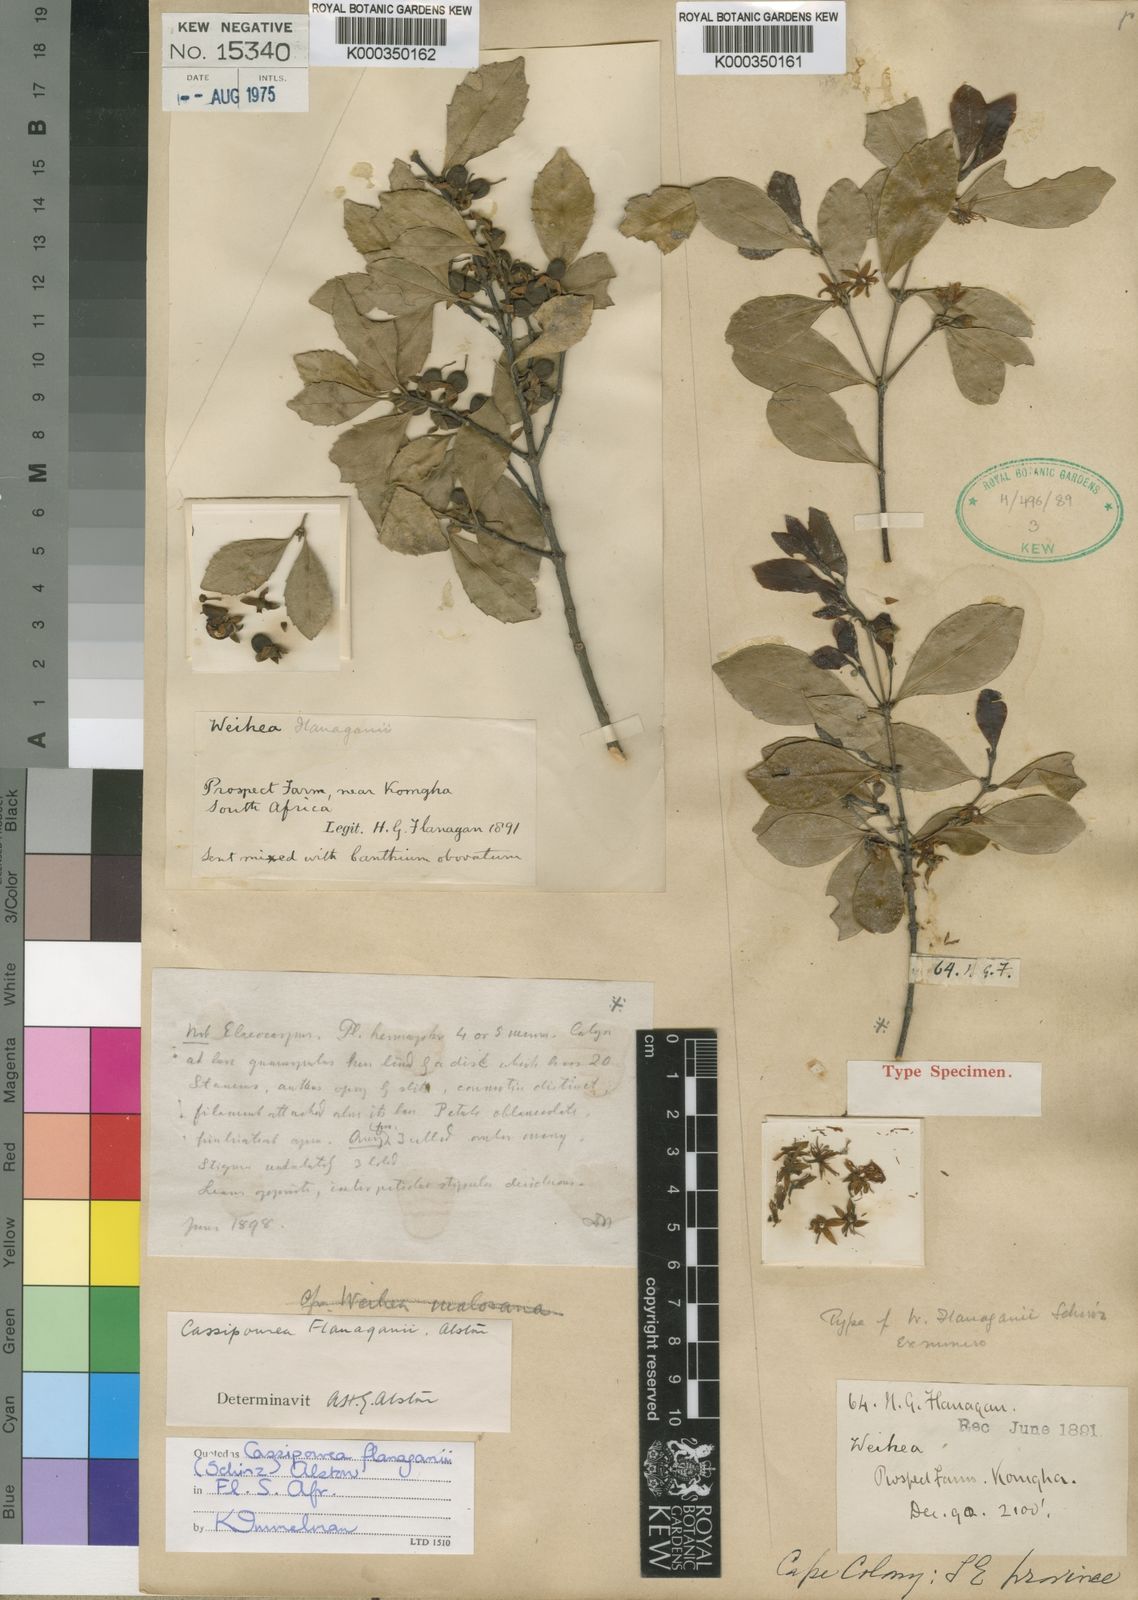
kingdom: Plantae
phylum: Tracheophyta
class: Magnoliopsida
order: Malpighiales
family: Rhizophoraceae
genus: Cassipourea
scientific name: Cassipourea flanaganii
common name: Cape onionwood
